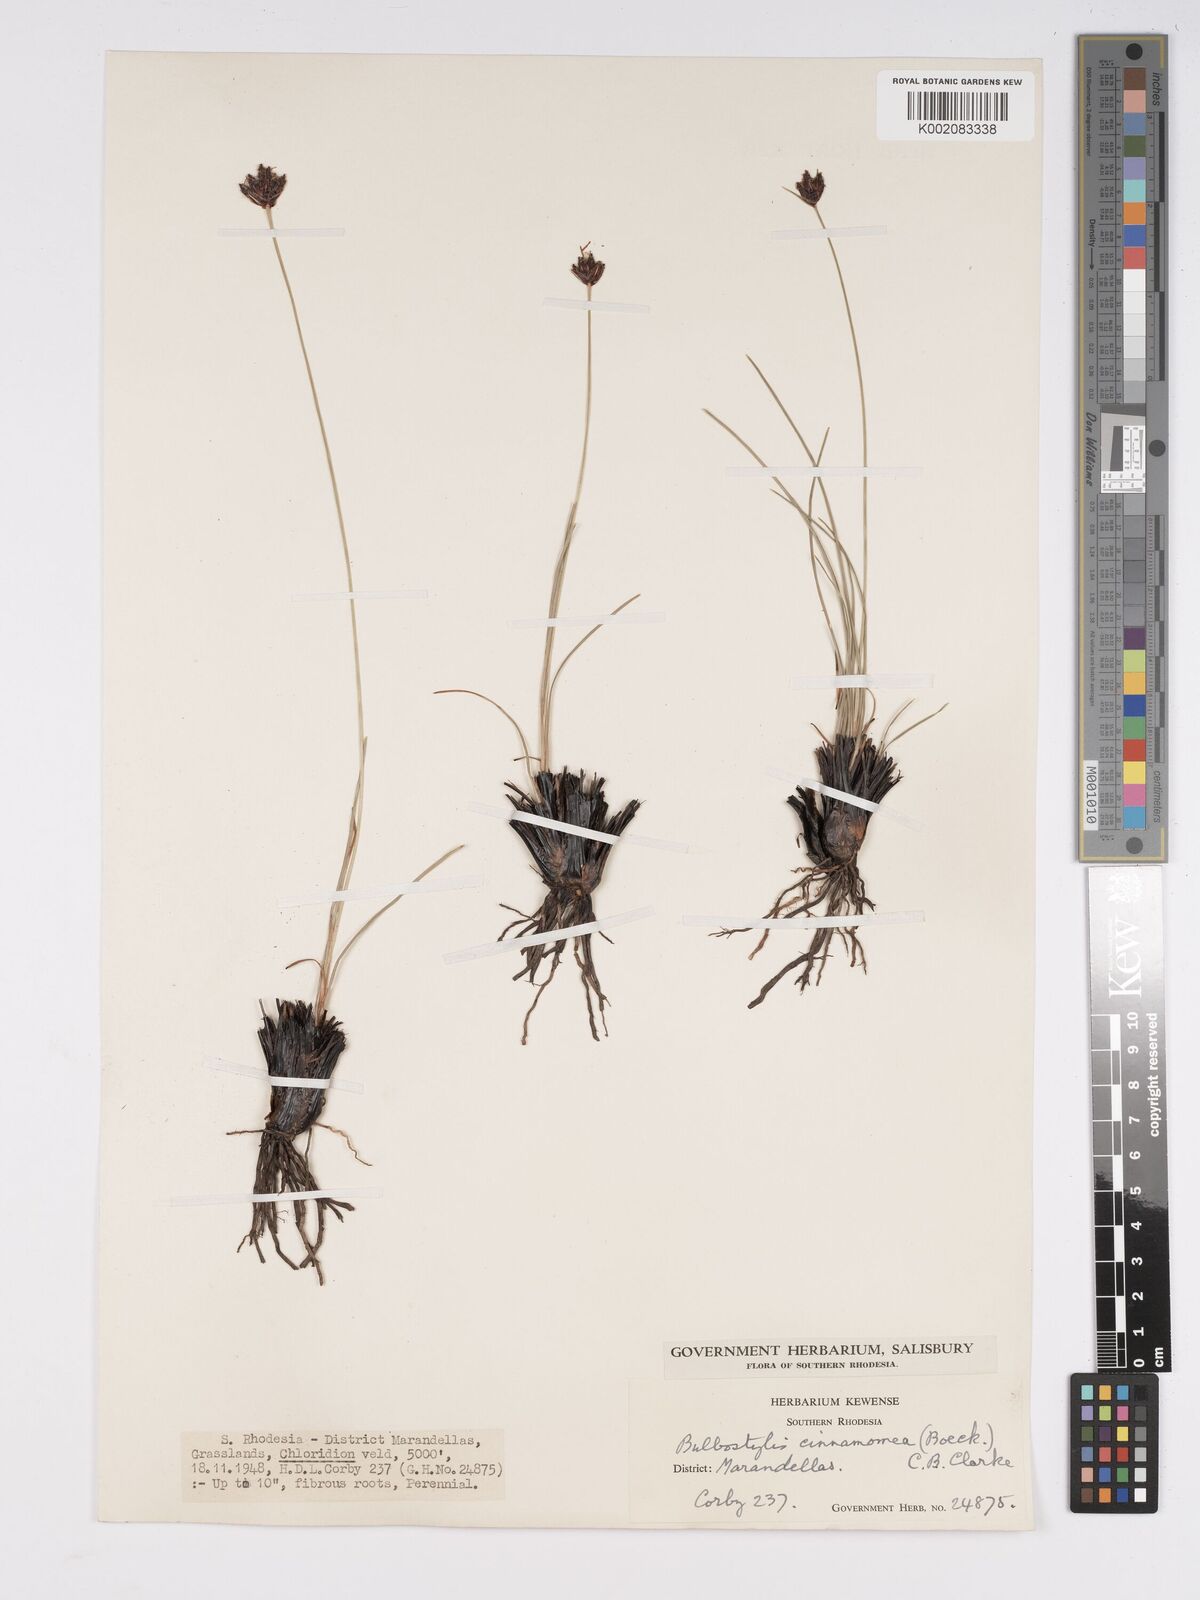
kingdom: Plantae
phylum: Tracheophyta
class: Liliopsida
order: Poales
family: Cyperaceae
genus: Bulbostylis
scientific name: Bulbostylis schoenoides
